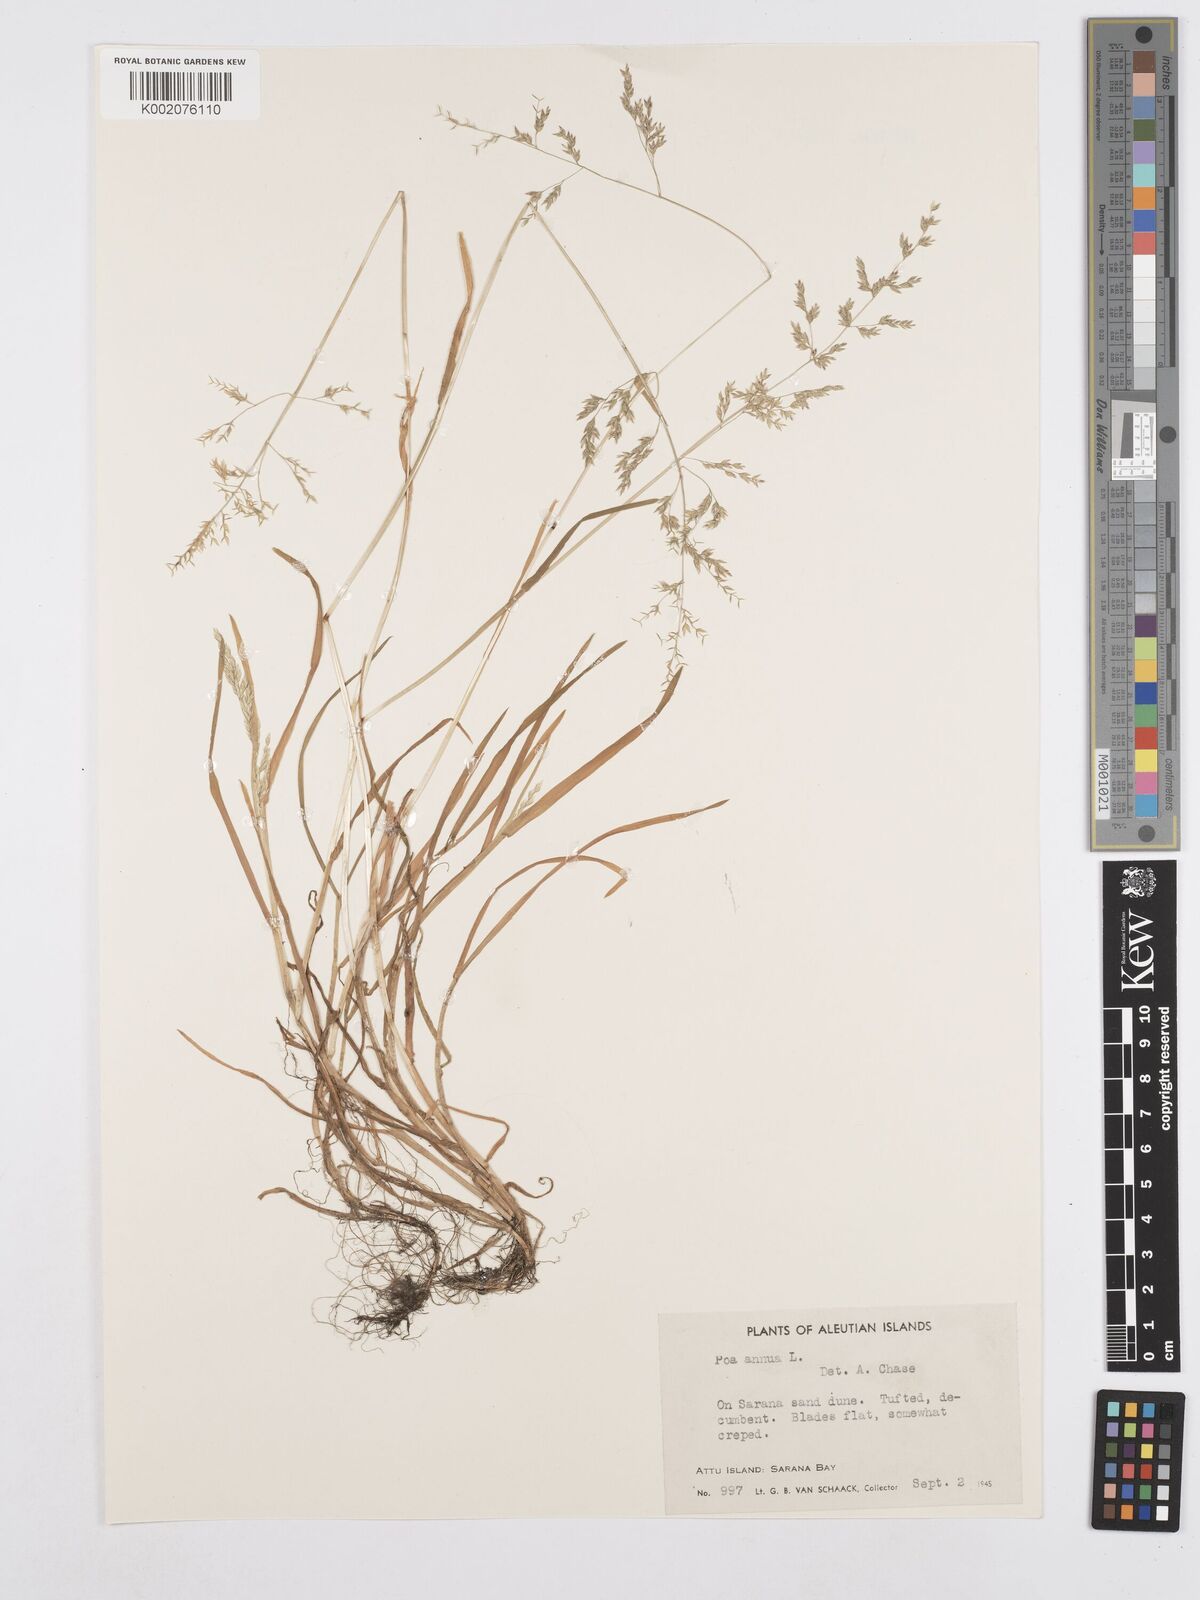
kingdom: Plantae
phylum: Tracheophyta
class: Liliopsida
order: Poales
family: Poaceae
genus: Poa
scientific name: Poa annua
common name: Annual bluegrass
